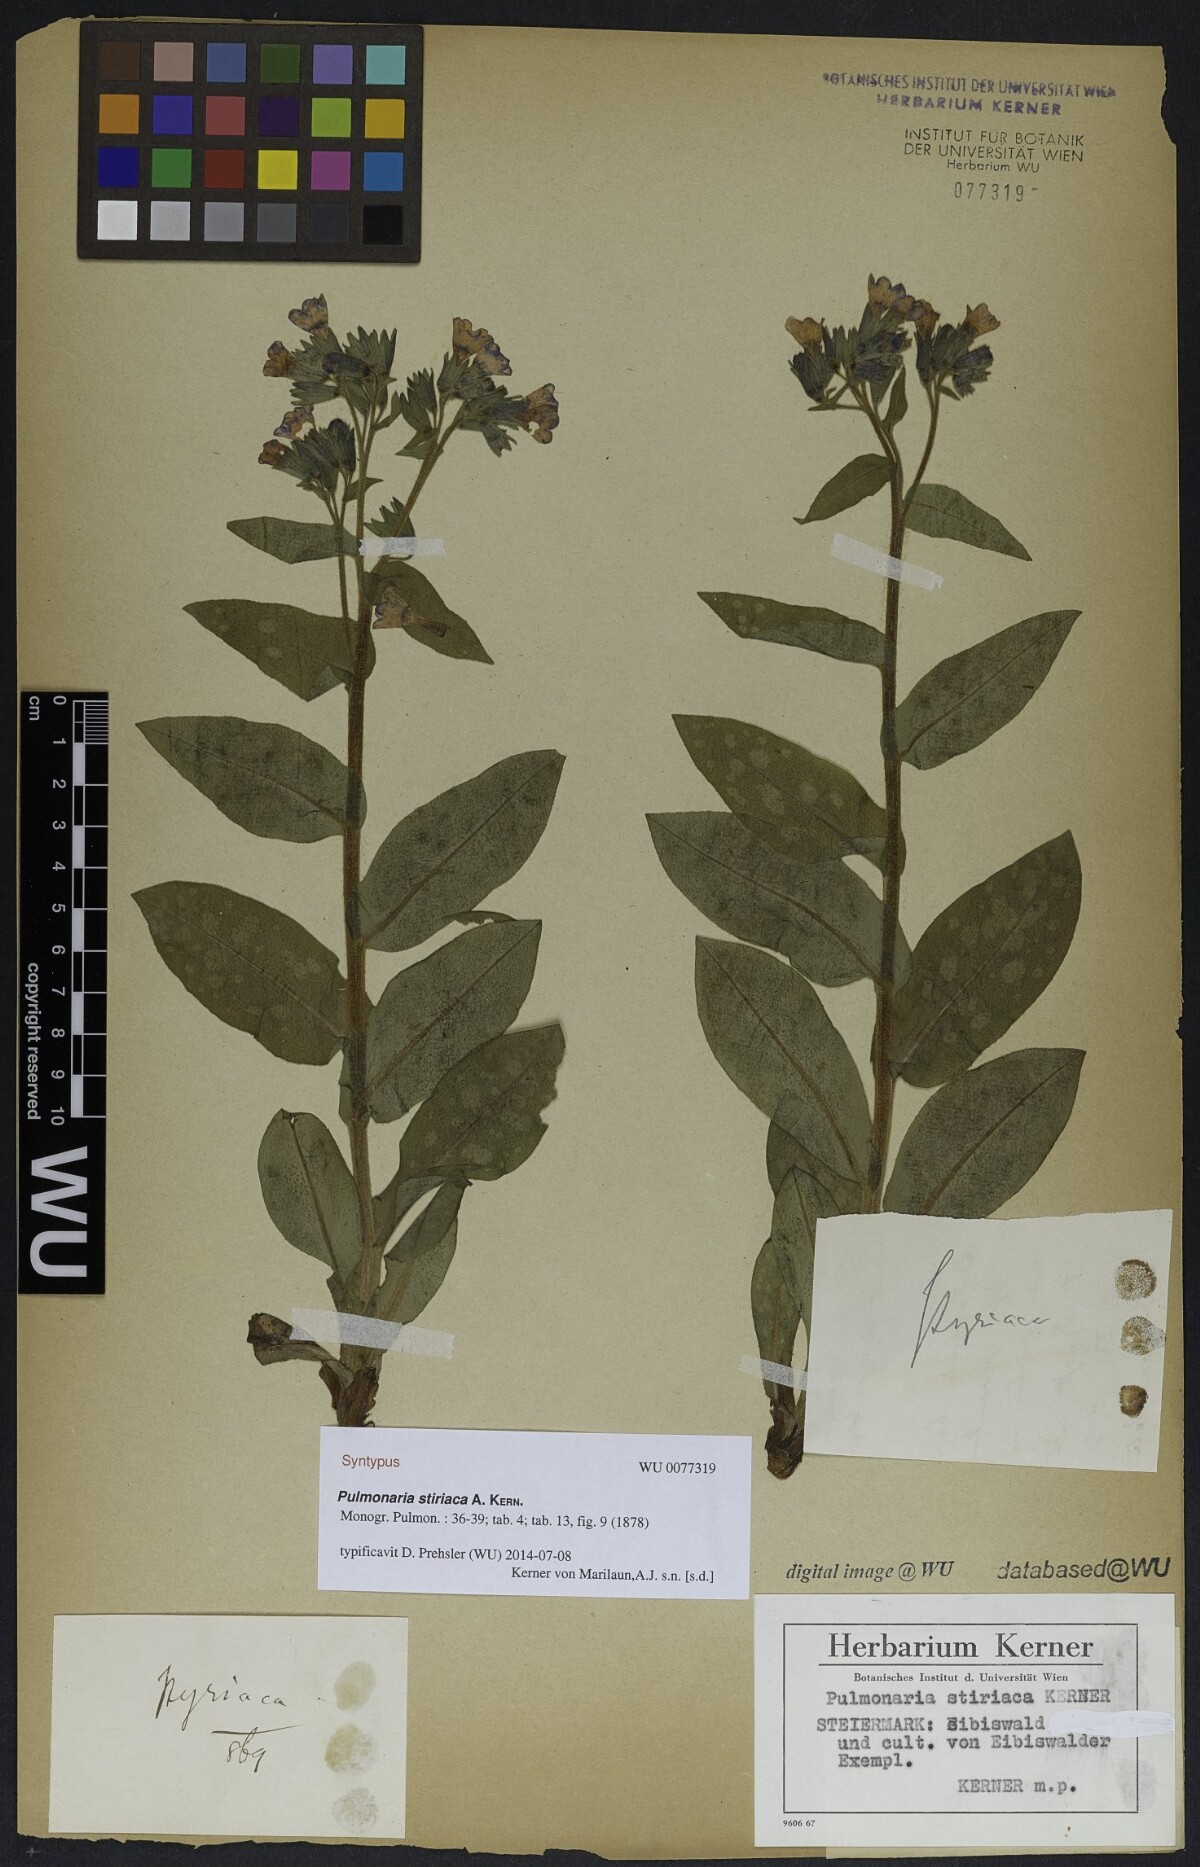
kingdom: Plantae
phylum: Tracheophyta
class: Magnoliopsida
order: Boraginales
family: Boraginaceae
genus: Pulmonaria
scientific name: Pulmonaria stiriaca
